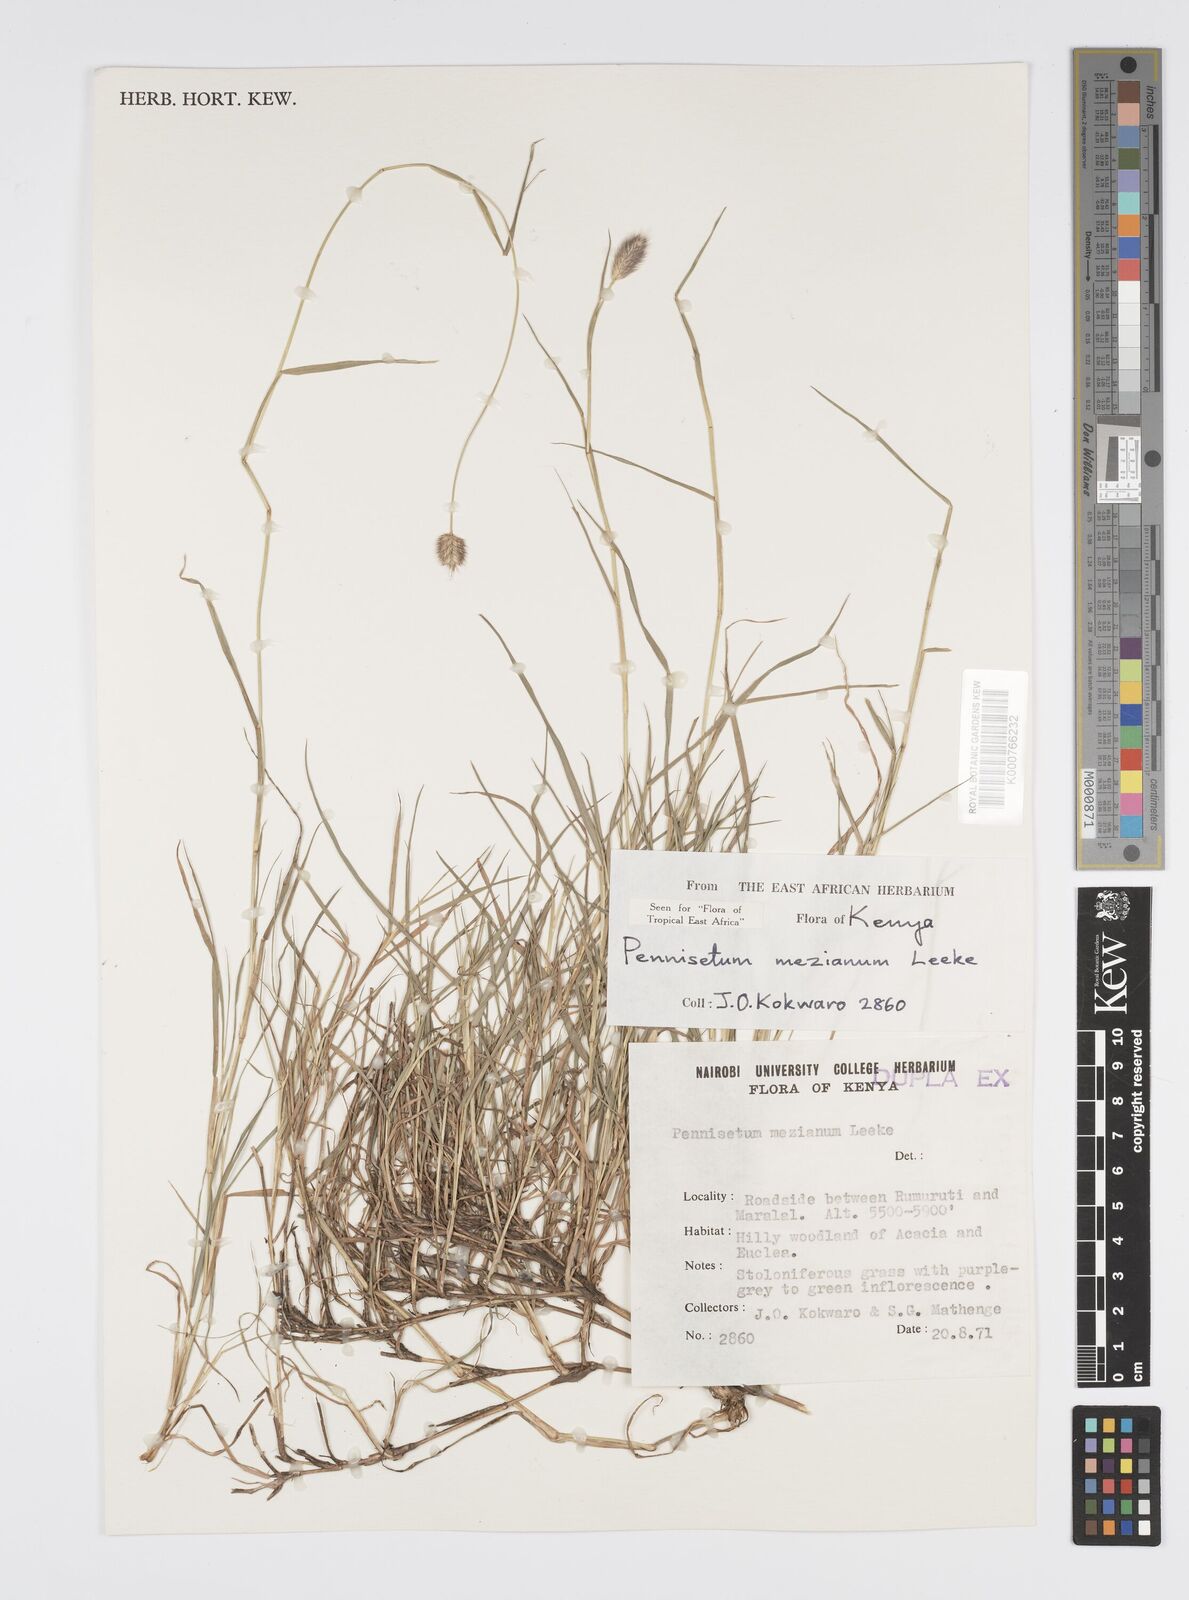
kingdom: Plantae
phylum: Tracheophyta
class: Liliopsida
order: Poales
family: Poaceae
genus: Cenchrus
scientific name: Cenchrus mezianus
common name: Bamboo grass
